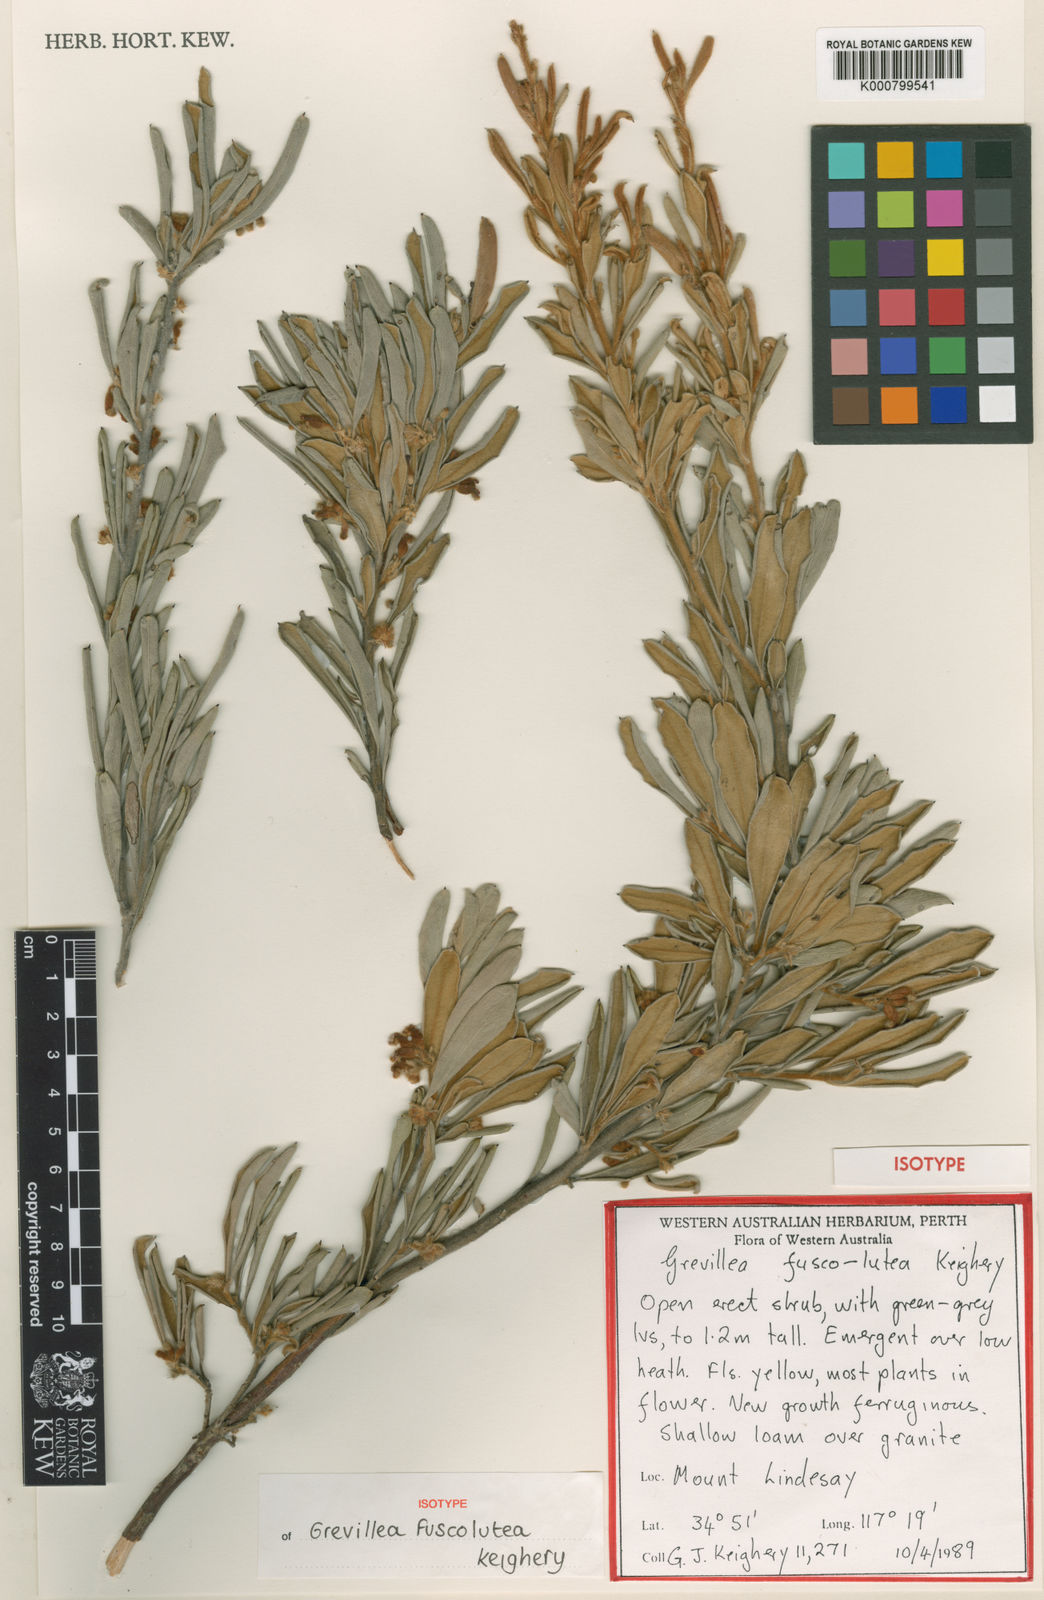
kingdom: Plantae
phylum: Tracheophyta
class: Magnoliopsida
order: Proteales
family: Proteaceae
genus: Grevillea
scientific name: Grevillea fuscolutea
